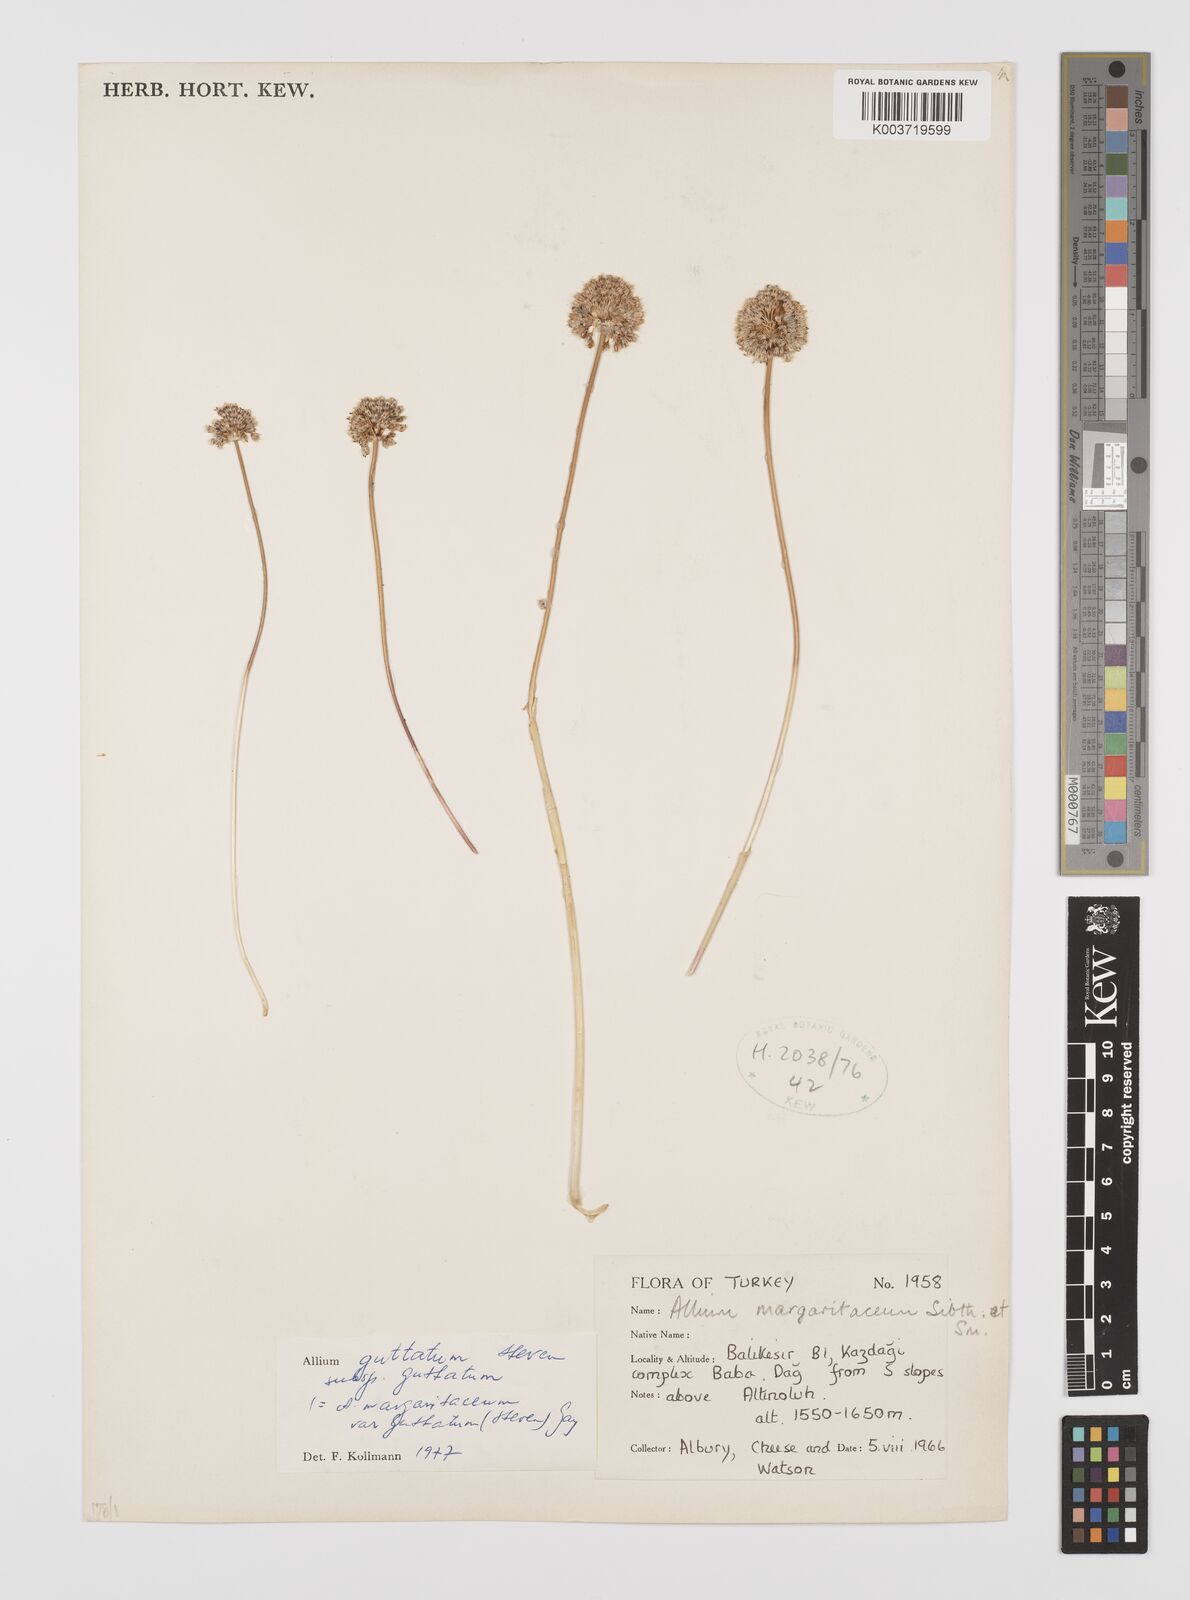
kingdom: Plantae
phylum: Tracheophyta
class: Liliopsida
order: Asparagales
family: Amaryllidaceae
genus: Allium
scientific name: Allium guttatum
